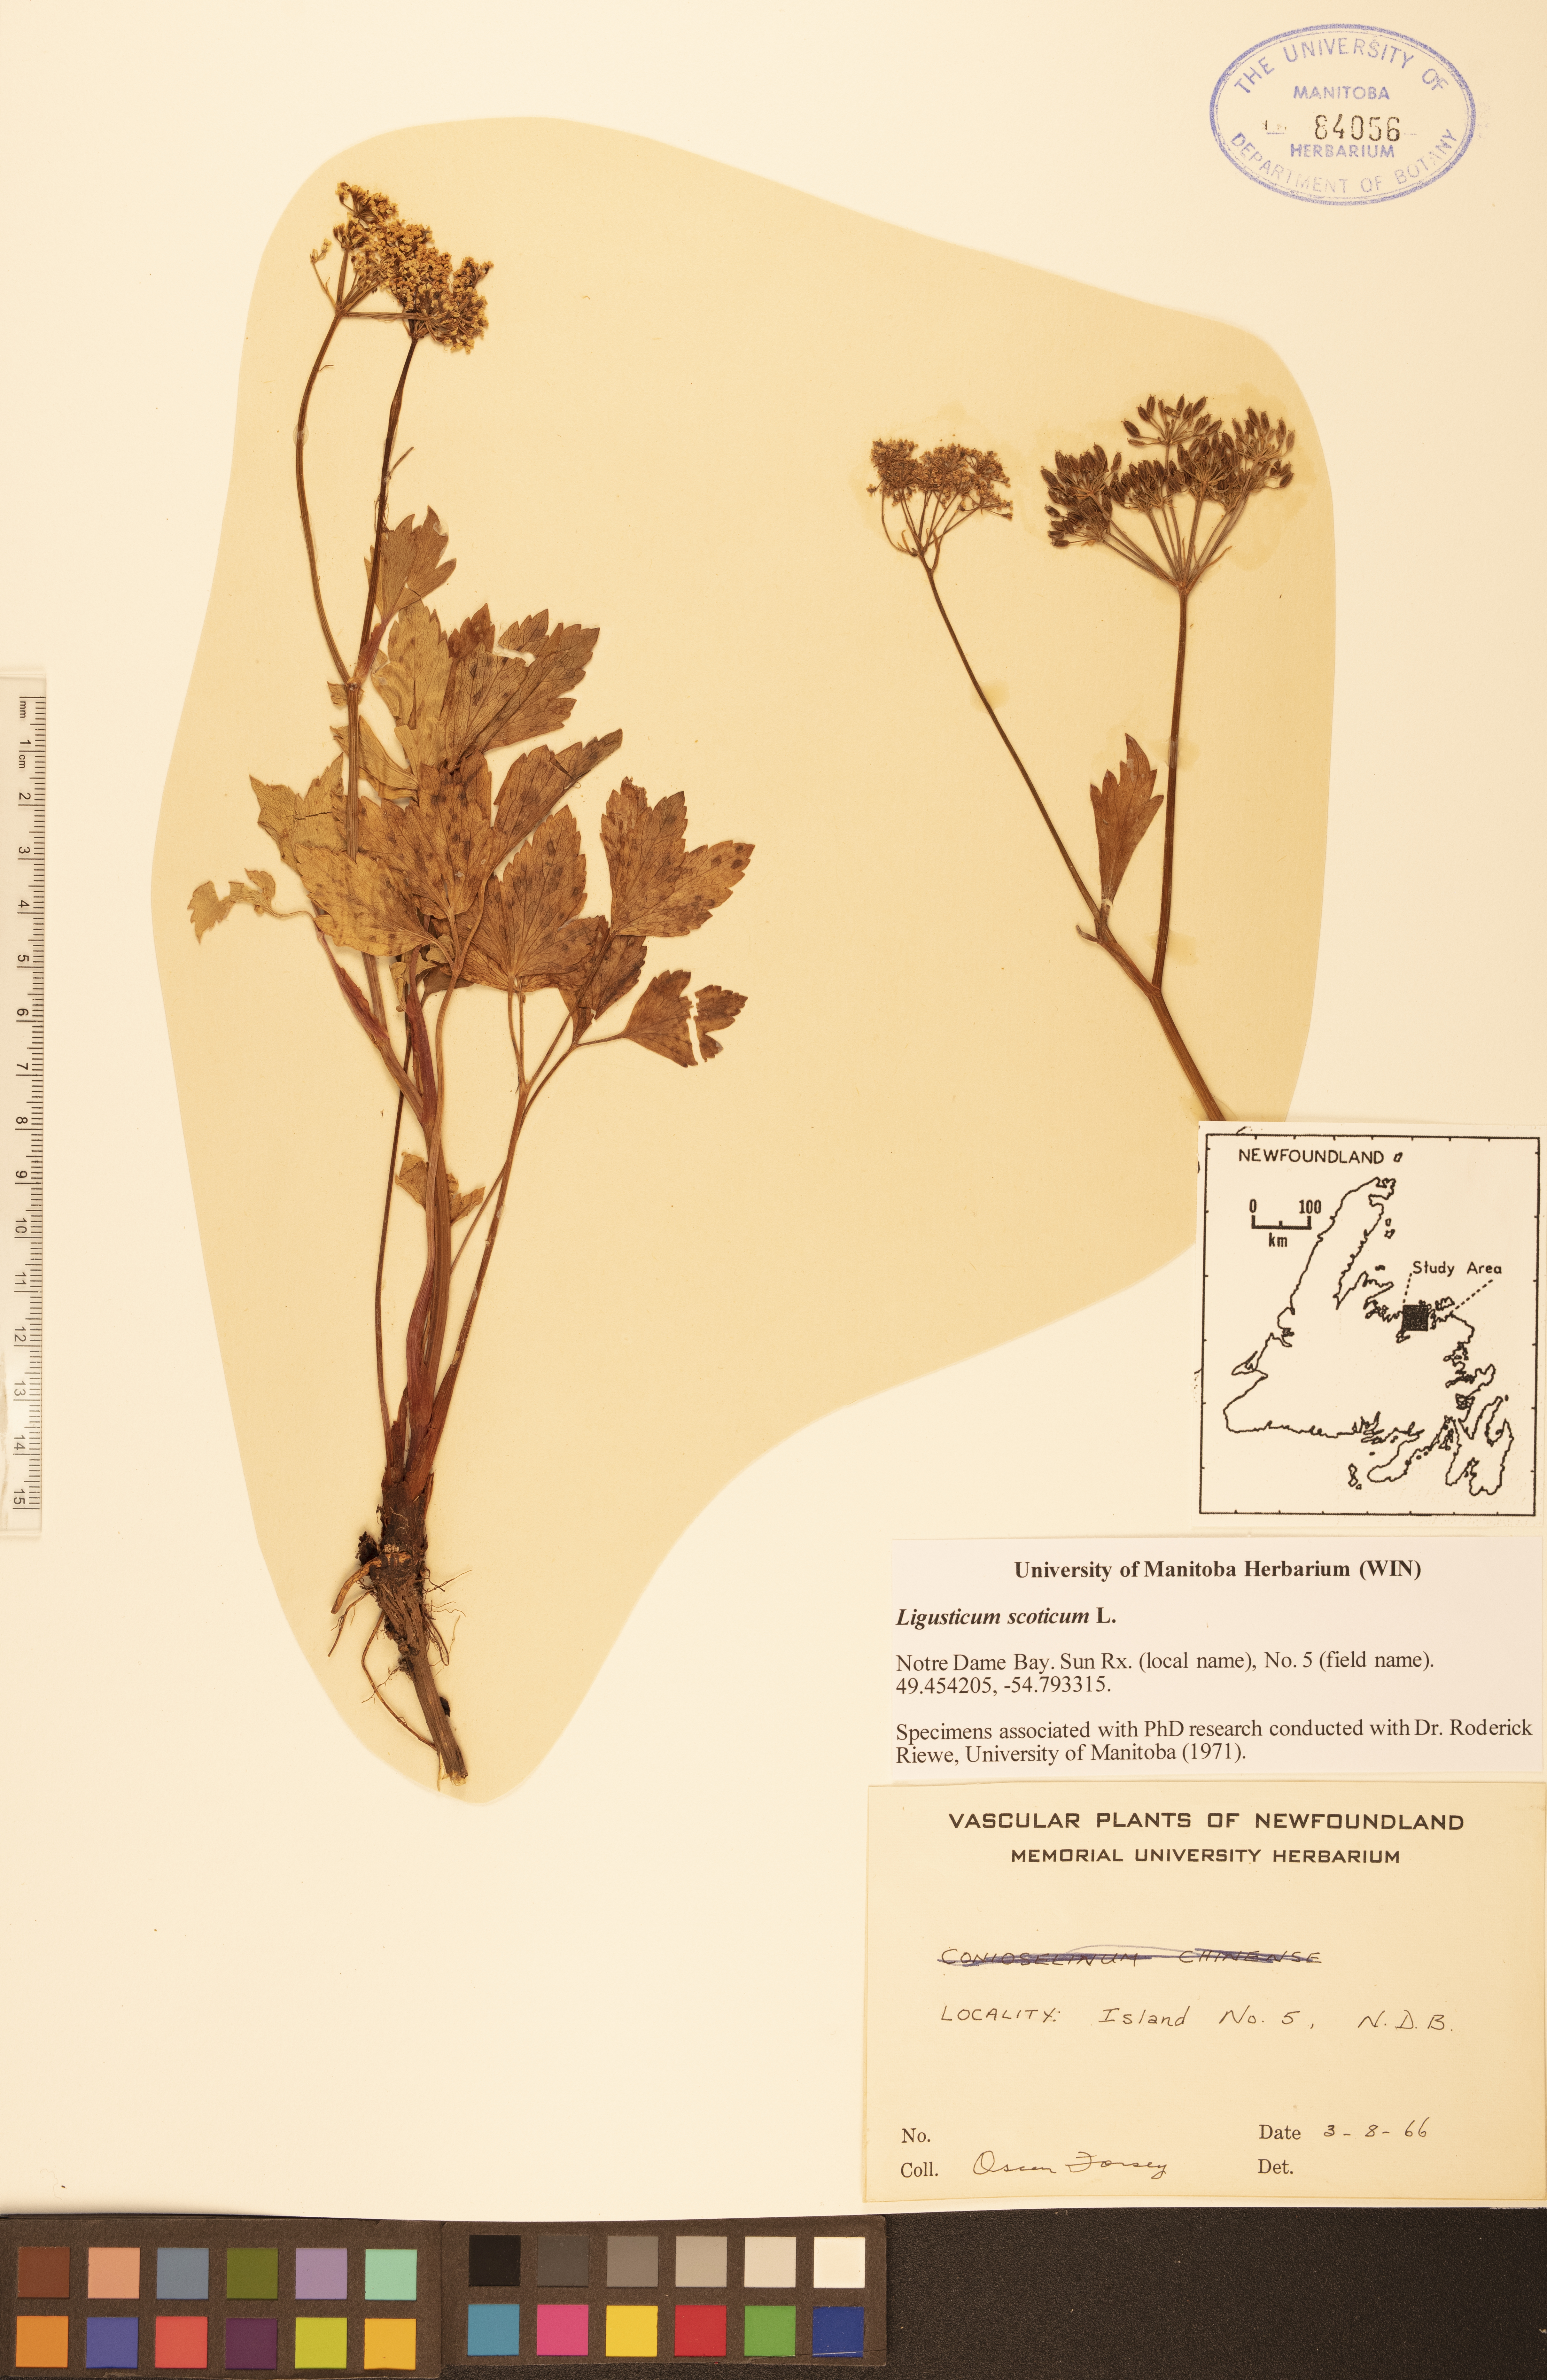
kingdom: Plantae
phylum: Tracheophyta
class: Magnoliopsida
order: Apiales
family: Apiaceae
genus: Ligusticum
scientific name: Ligusticum scothicum
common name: Beach lovage
